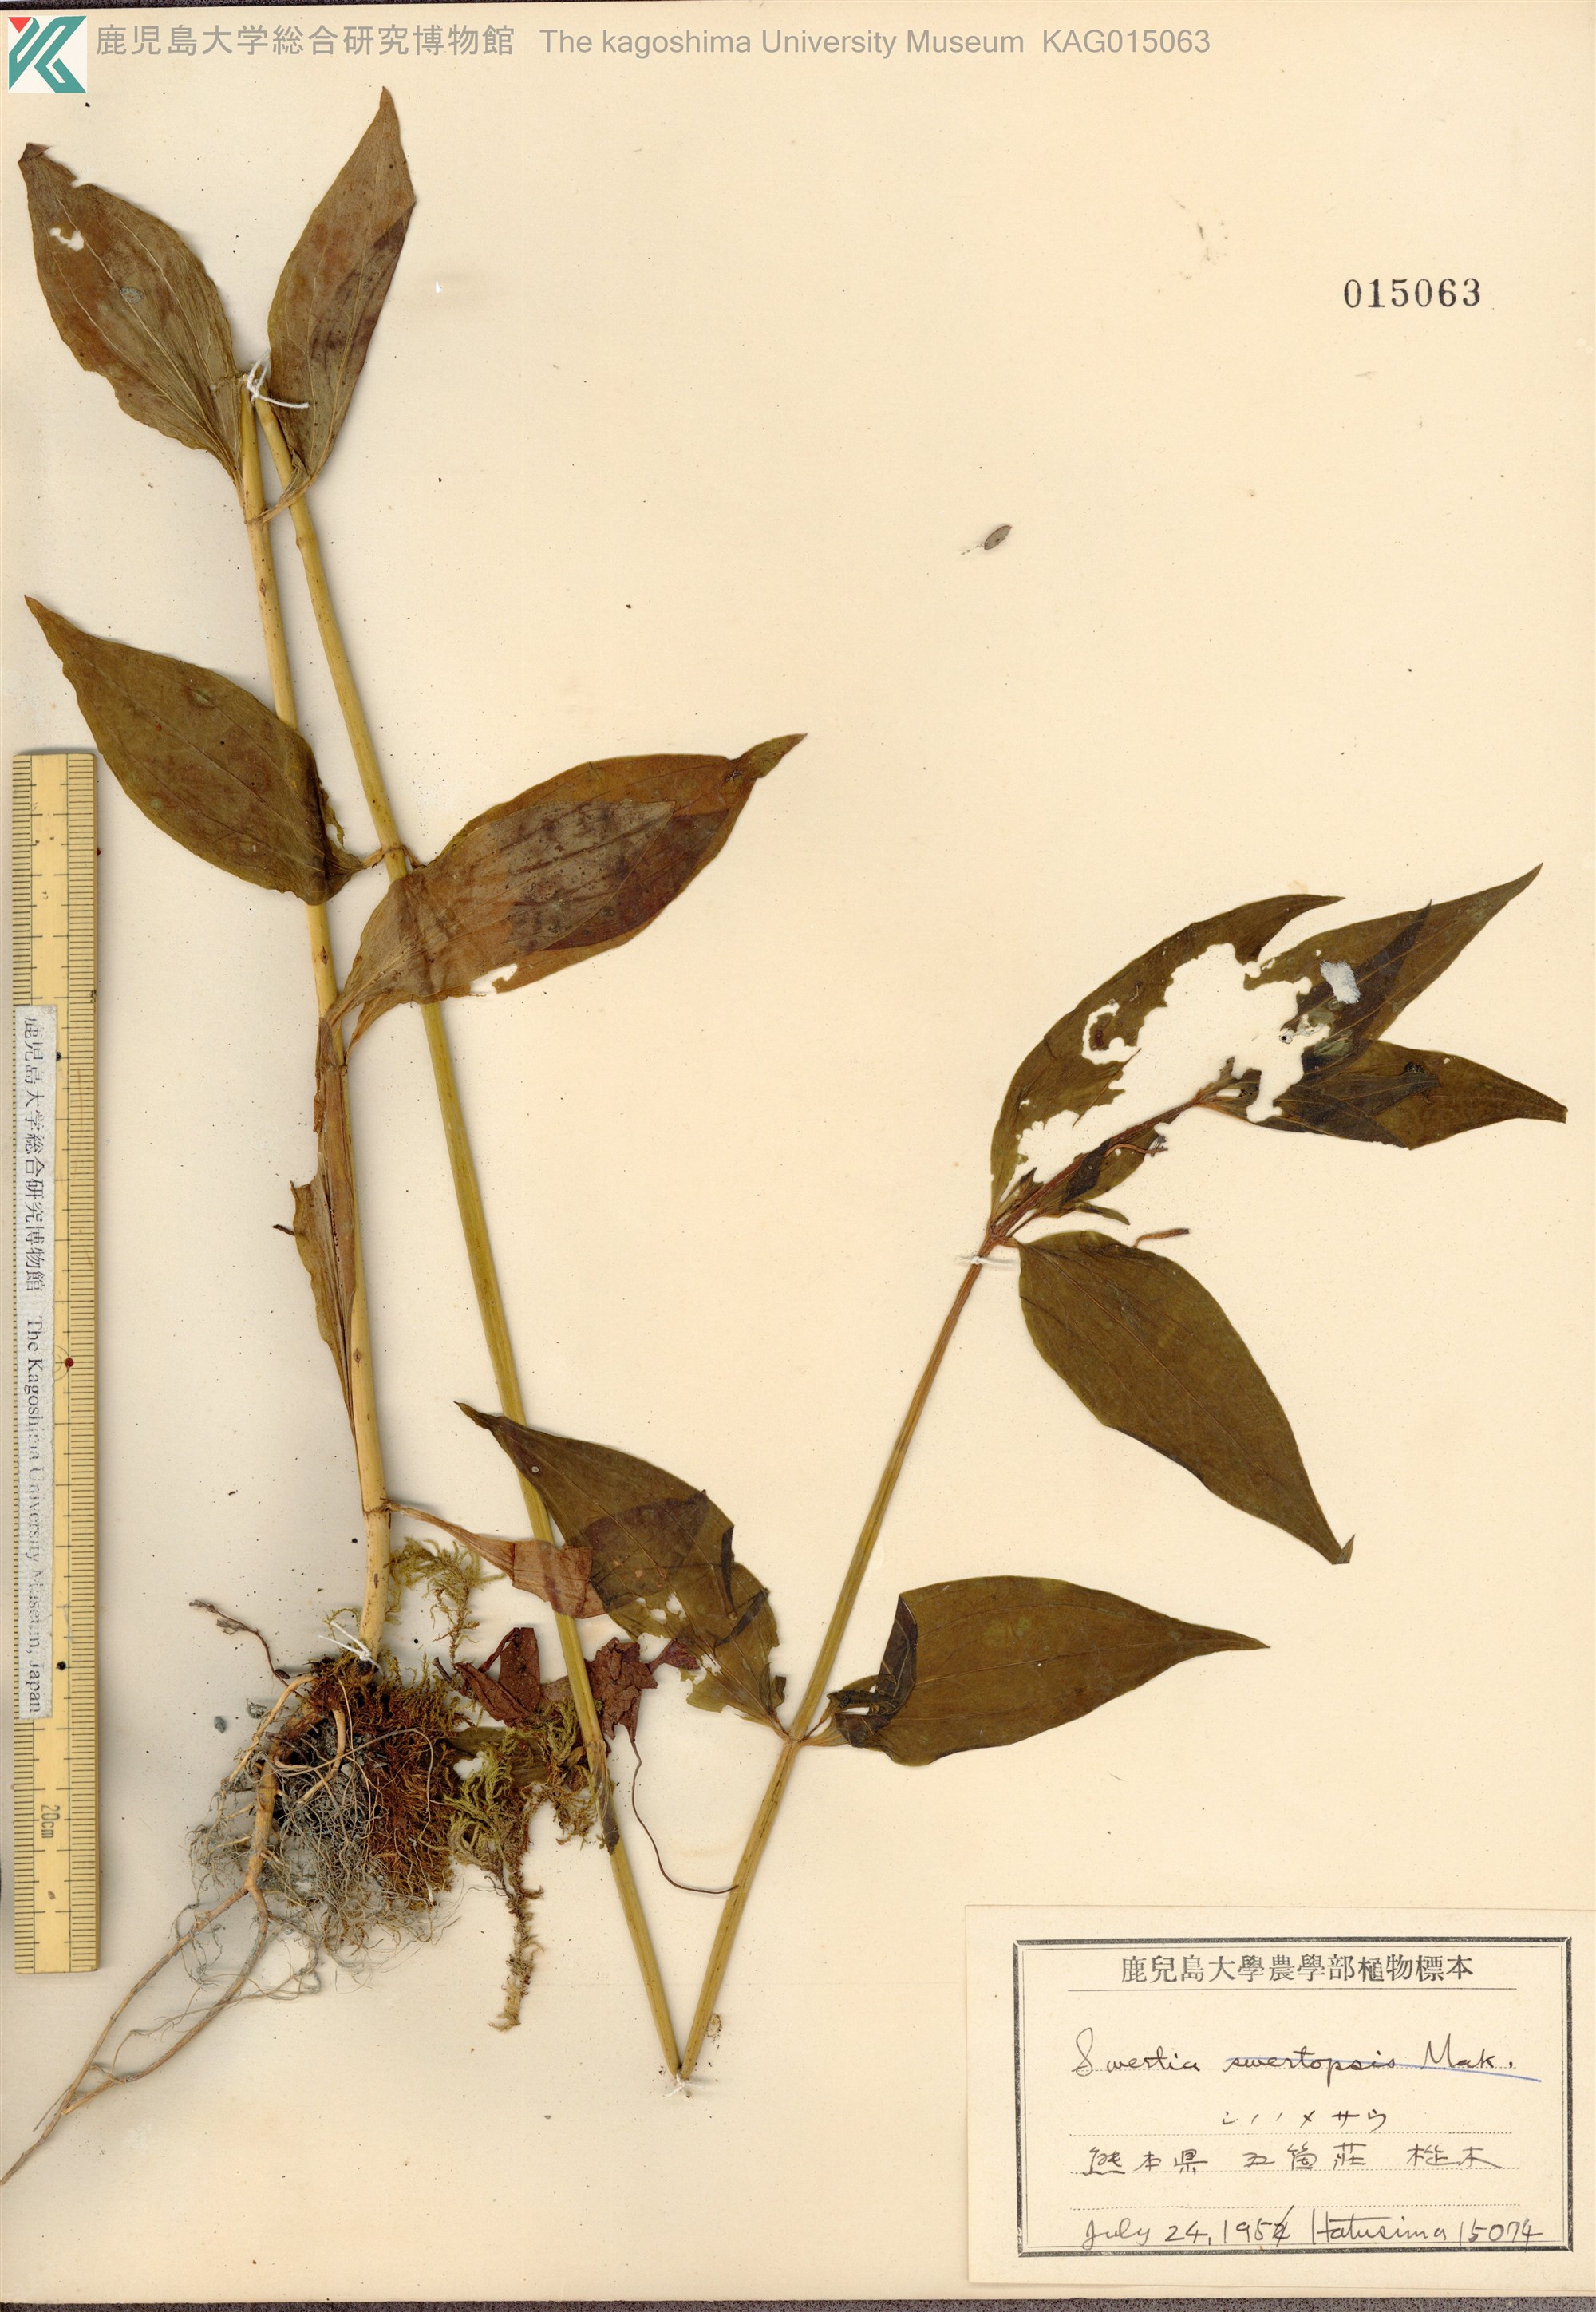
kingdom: Plantae
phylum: Tracheophyta
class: Magnoliopsida
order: Gentianales
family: Gentianaceae
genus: Swertia
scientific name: Swertia bimaculata
